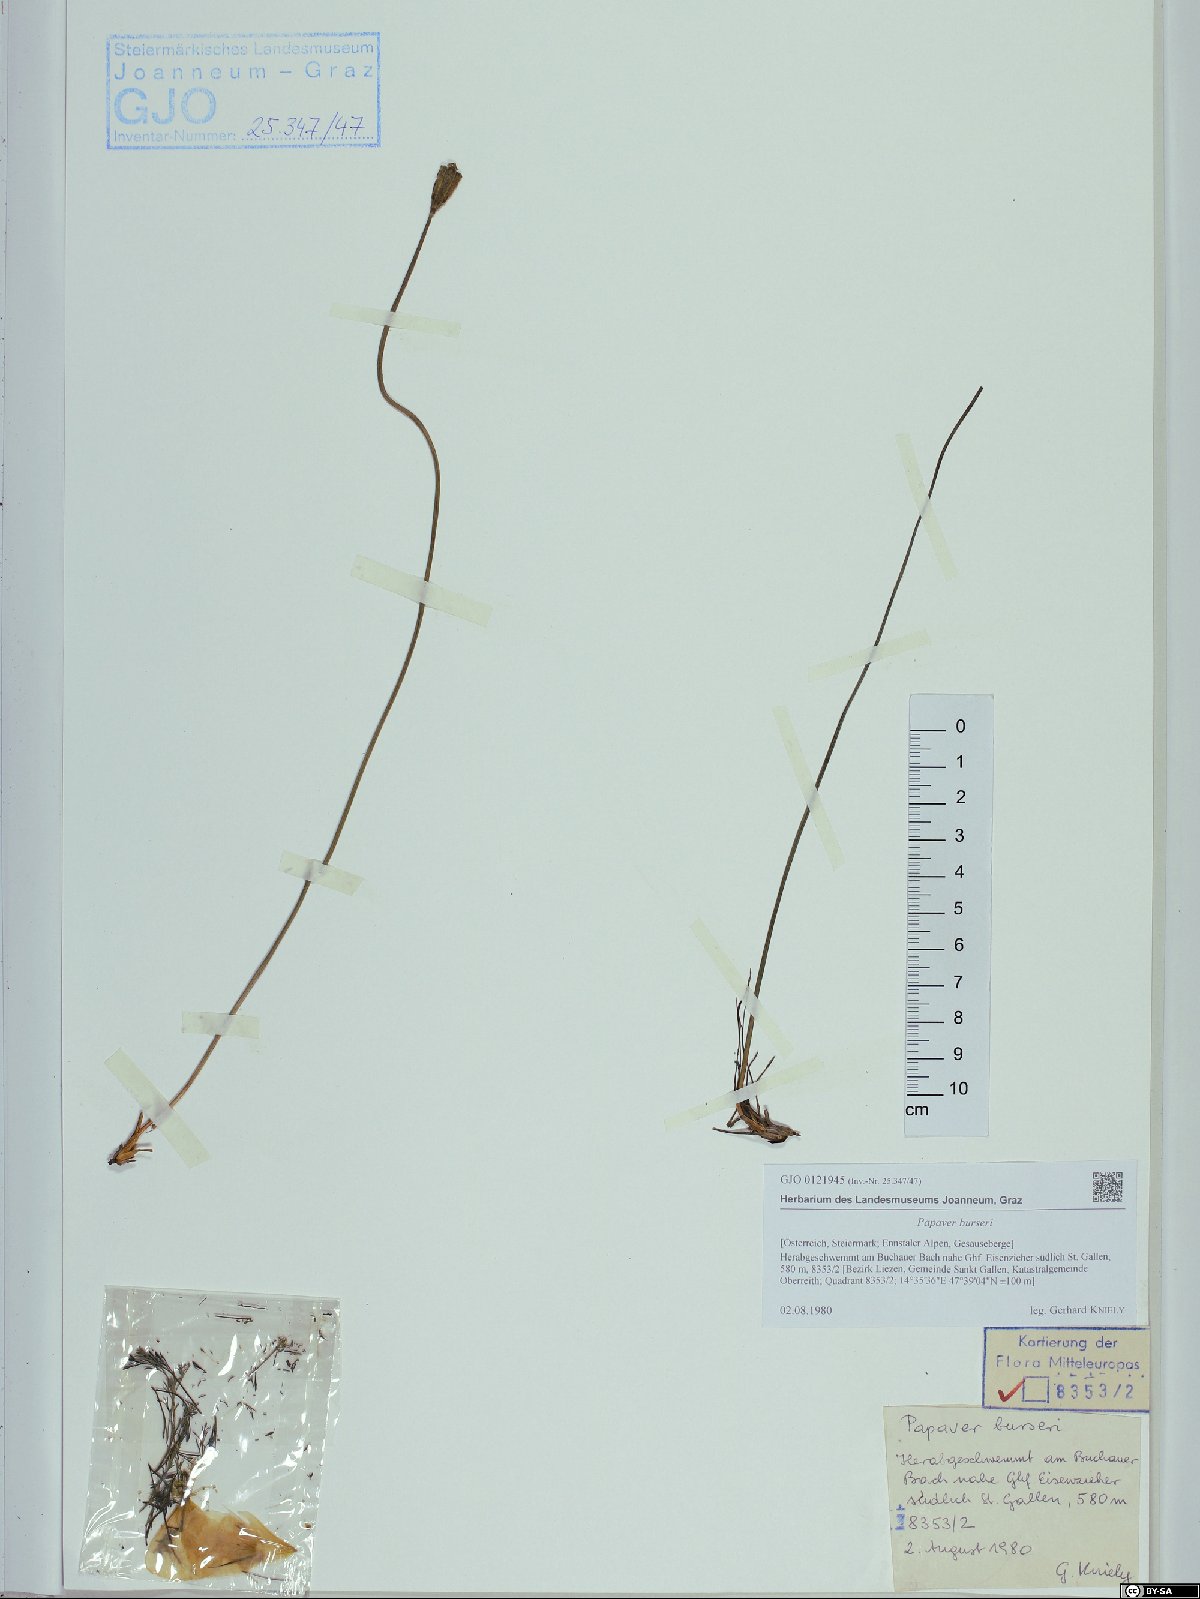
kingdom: Plantae
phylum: Tracheophyta
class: Magnoliopsida
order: Ranunculales
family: Papaveraceae
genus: Papaver
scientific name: Papaver alpinum
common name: Austrian poppy
